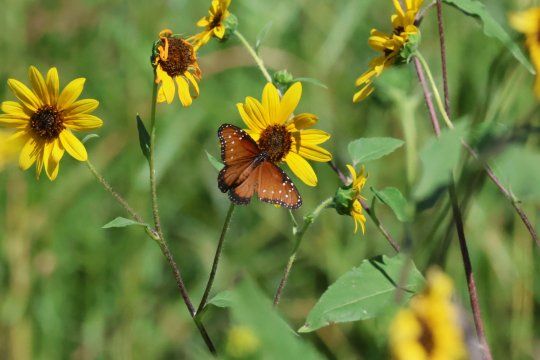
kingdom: Animalia
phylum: Arthropoda
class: Insecta
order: Lepidoptera
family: Nymphalidae
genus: Danaus
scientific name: Danaus gilippus
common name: Queen
